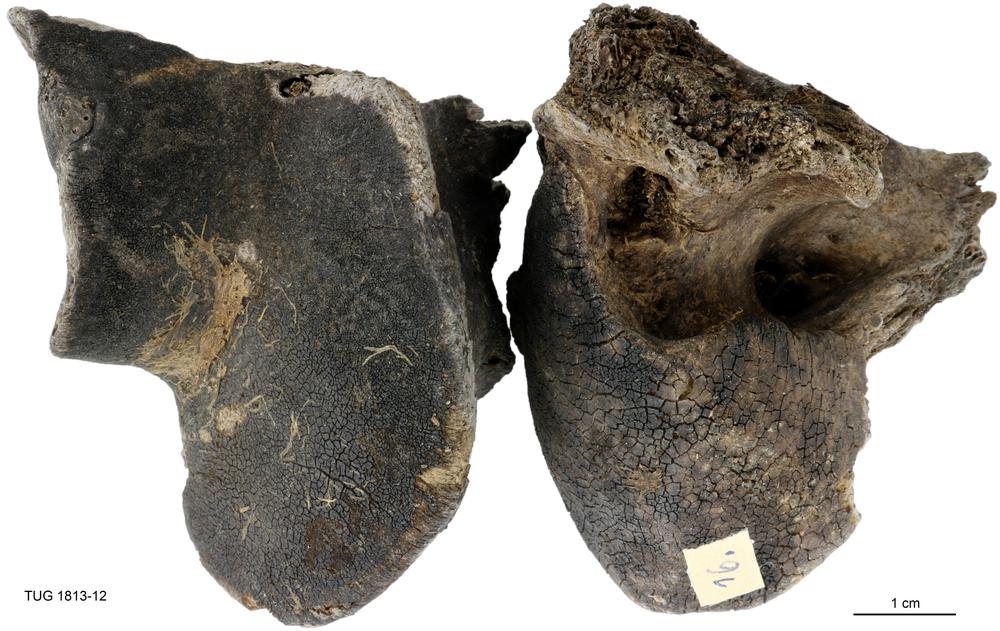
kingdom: Animalia
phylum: Chordata
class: Mammalia
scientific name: Mammalia
